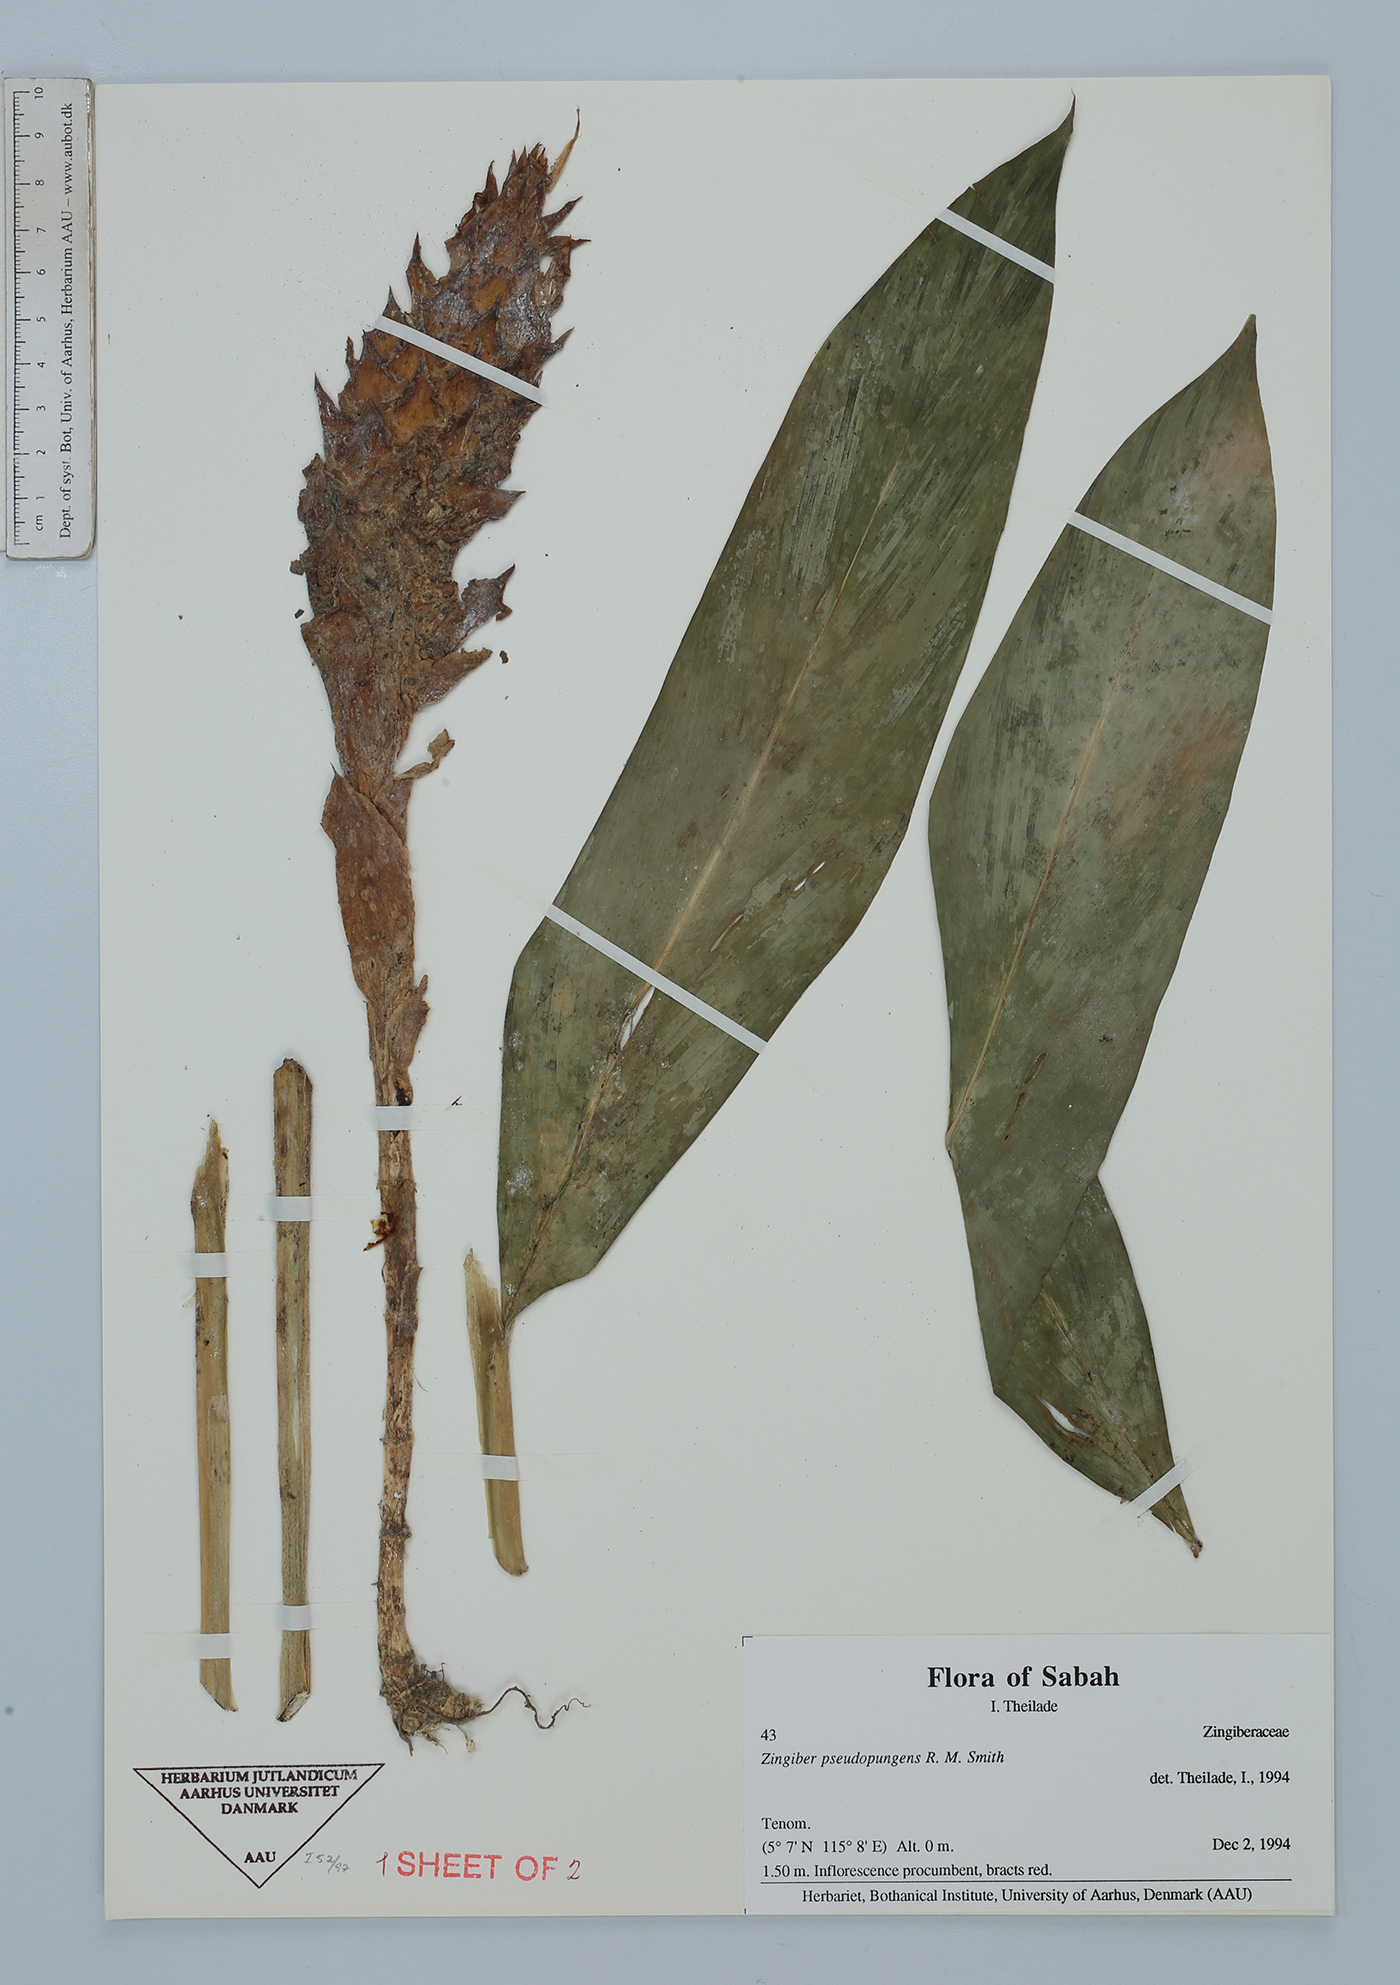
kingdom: Plantae
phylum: Tracheophyta
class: Liliopsida
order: Zingiberales
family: Zingiberaceae
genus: Zingiber
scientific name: Zingiber pseudopungens
